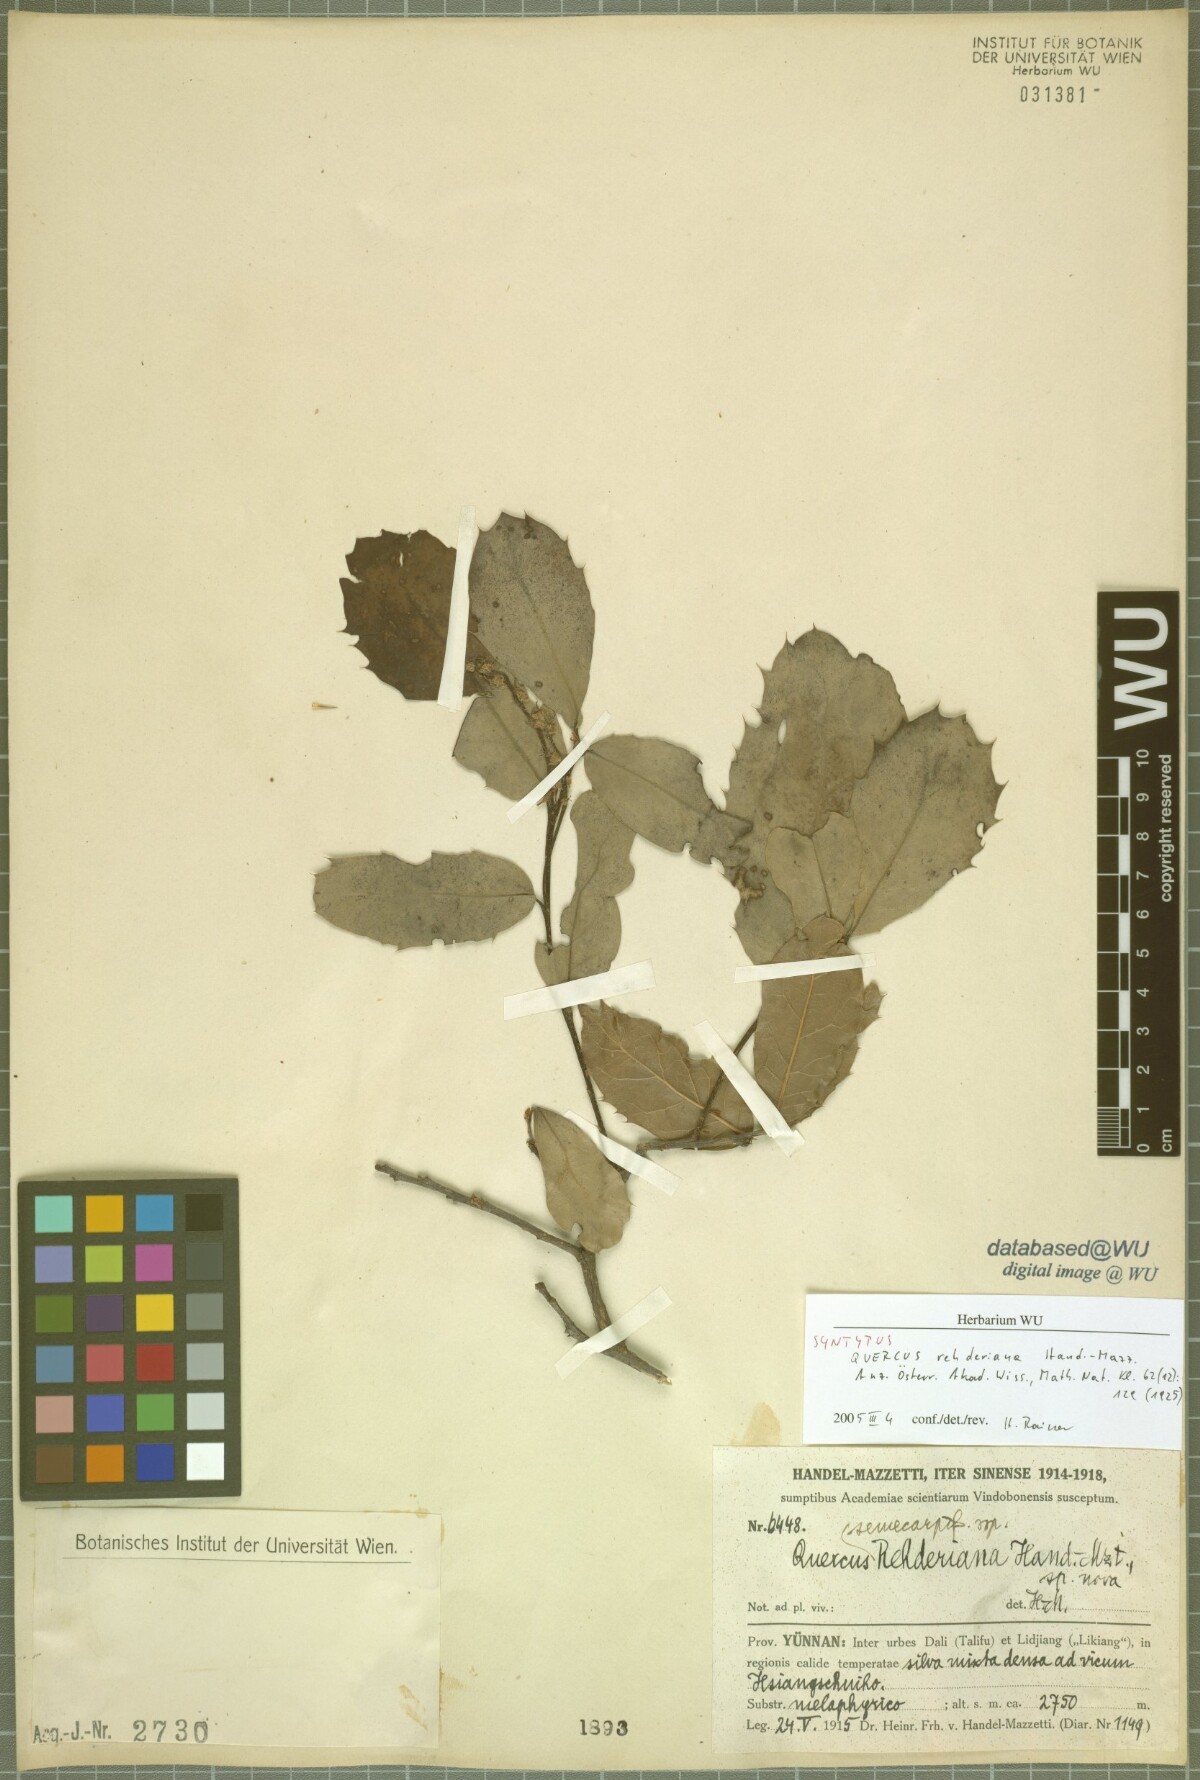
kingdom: Plantae
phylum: Tracheophyta
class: Magnoliopsida
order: Fagales
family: Fagaceae
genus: Quercus
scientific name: Quercus rehderiana
